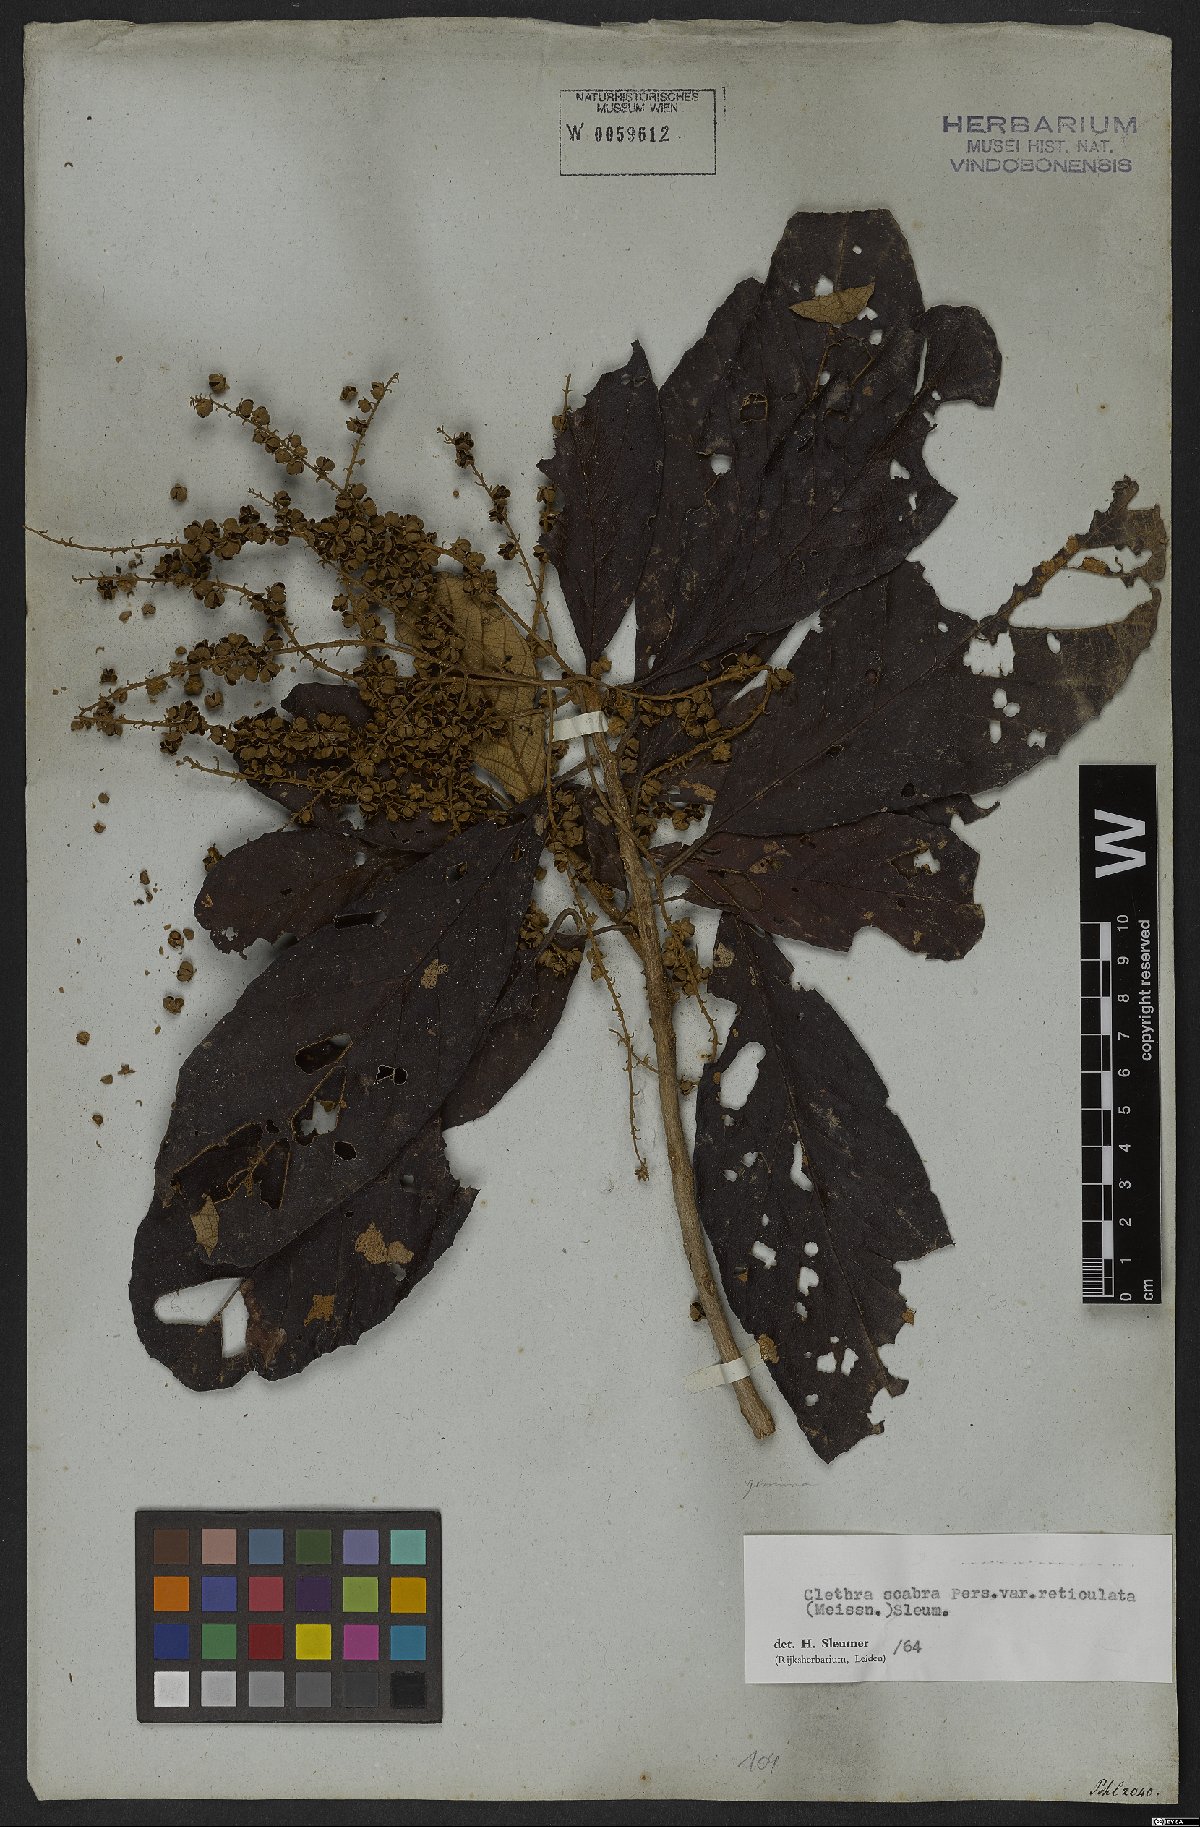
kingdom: Plantae
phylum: Tracheophyta
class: Magnoliopsida
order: Ericales
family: Clethraceae
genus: Clethra
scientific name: Clethra scabra
